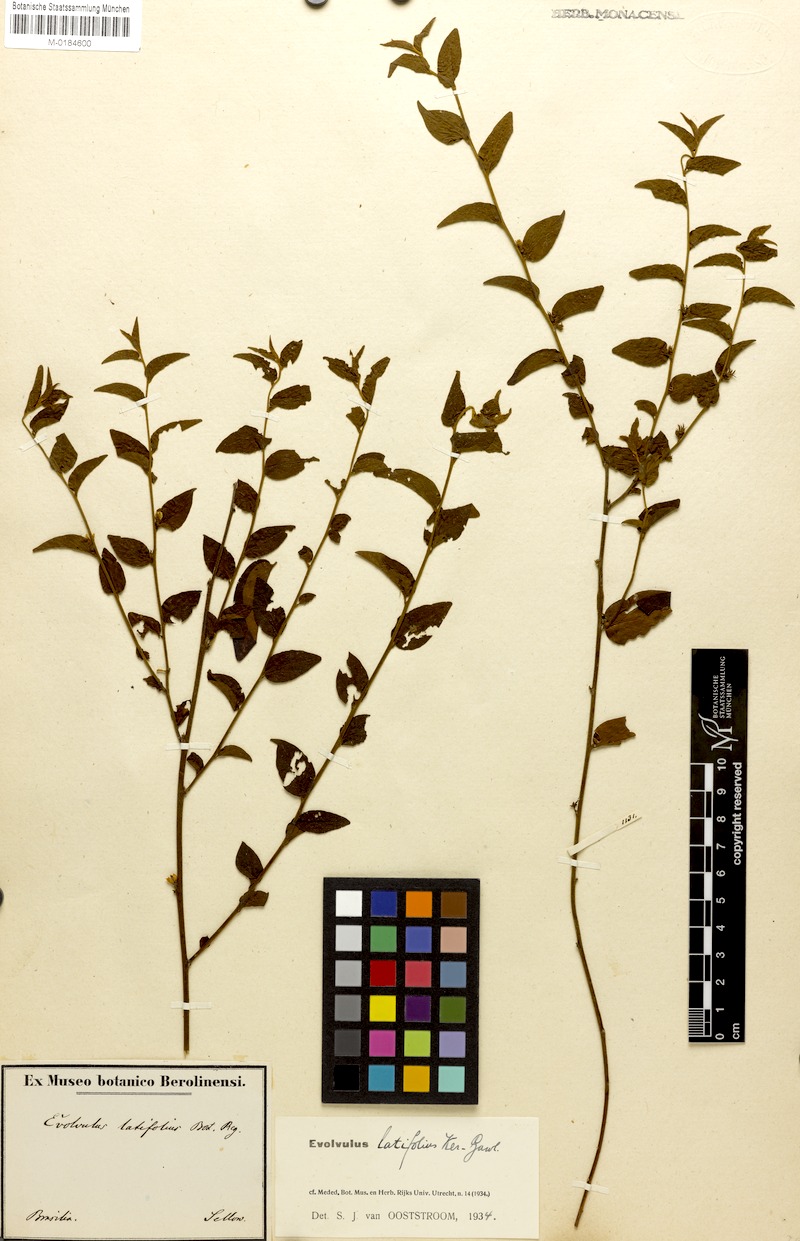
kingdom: Plantae
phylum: Tracheophyta
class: Magnoliopsida
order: Solanales
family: Convolvulaceae
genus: Evolvulus
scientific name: Evolvulus latifolius
